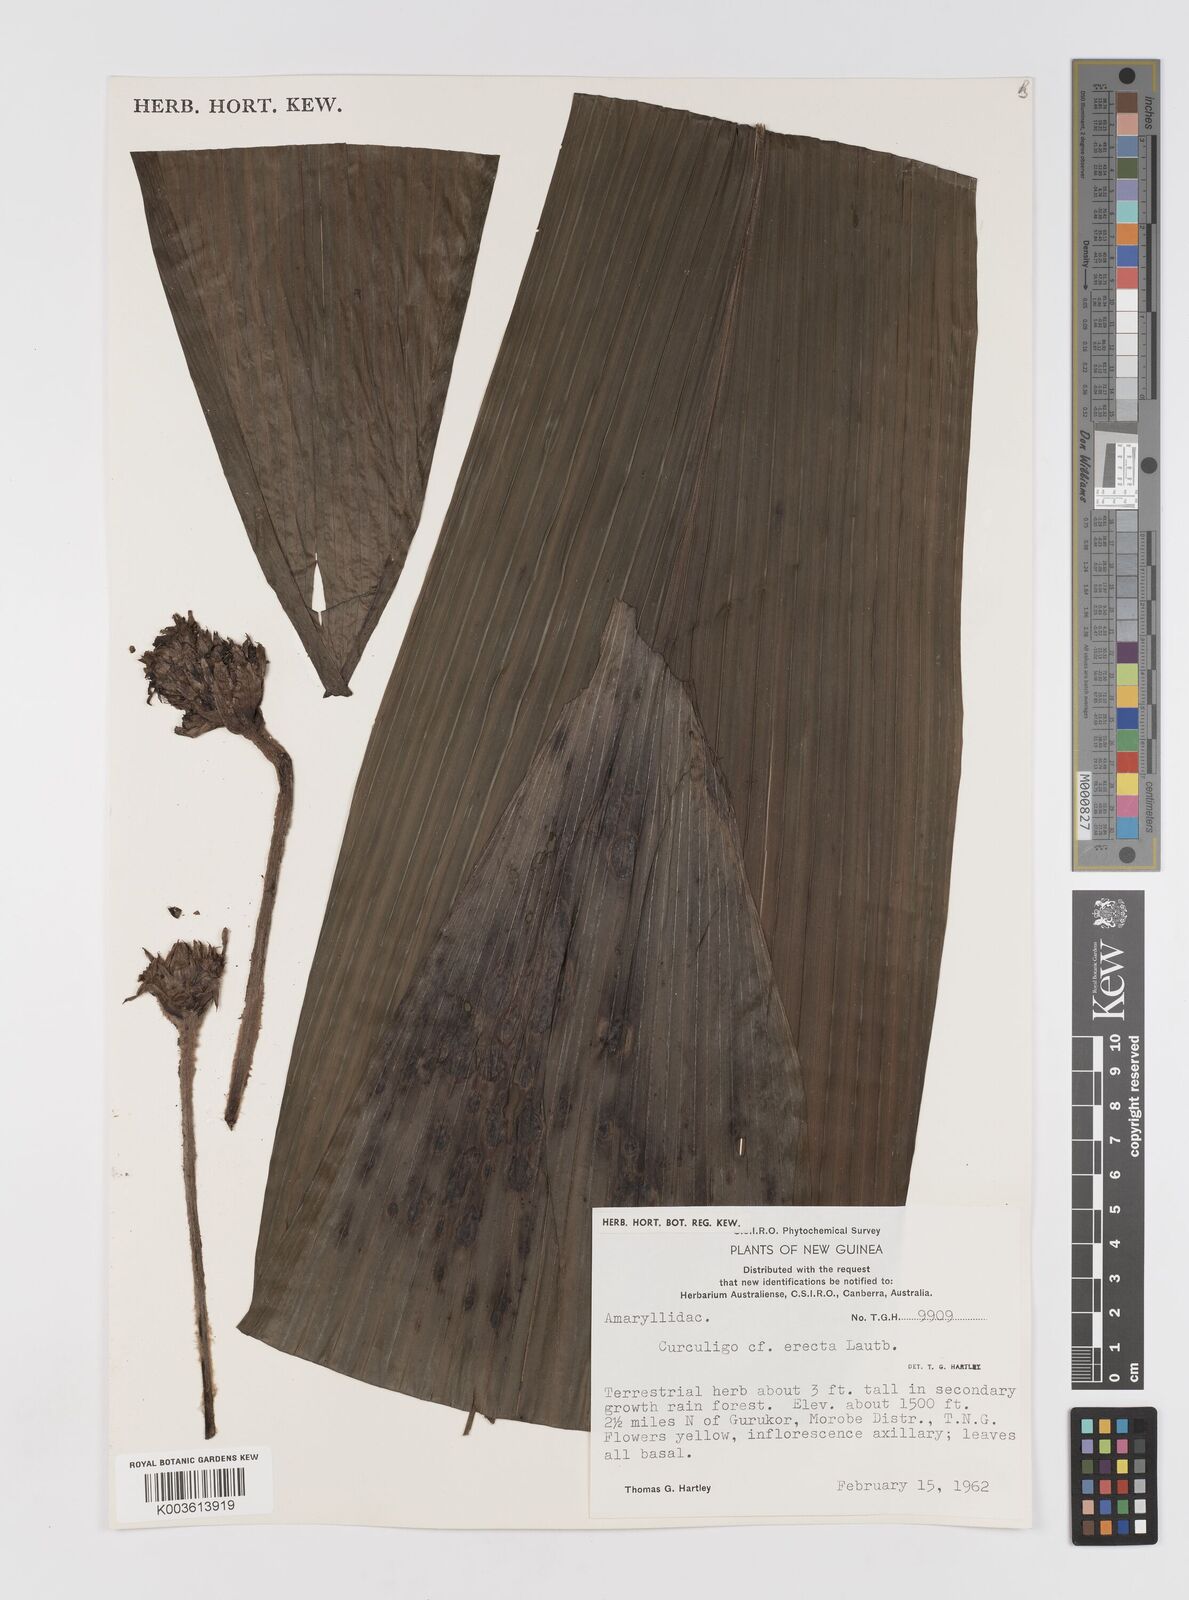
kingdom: Plantae
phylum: Tracheophyta
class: Liliopsida
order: Asparagales
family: Hypoxidaceae
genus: Curculigo
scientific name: Curculigo
